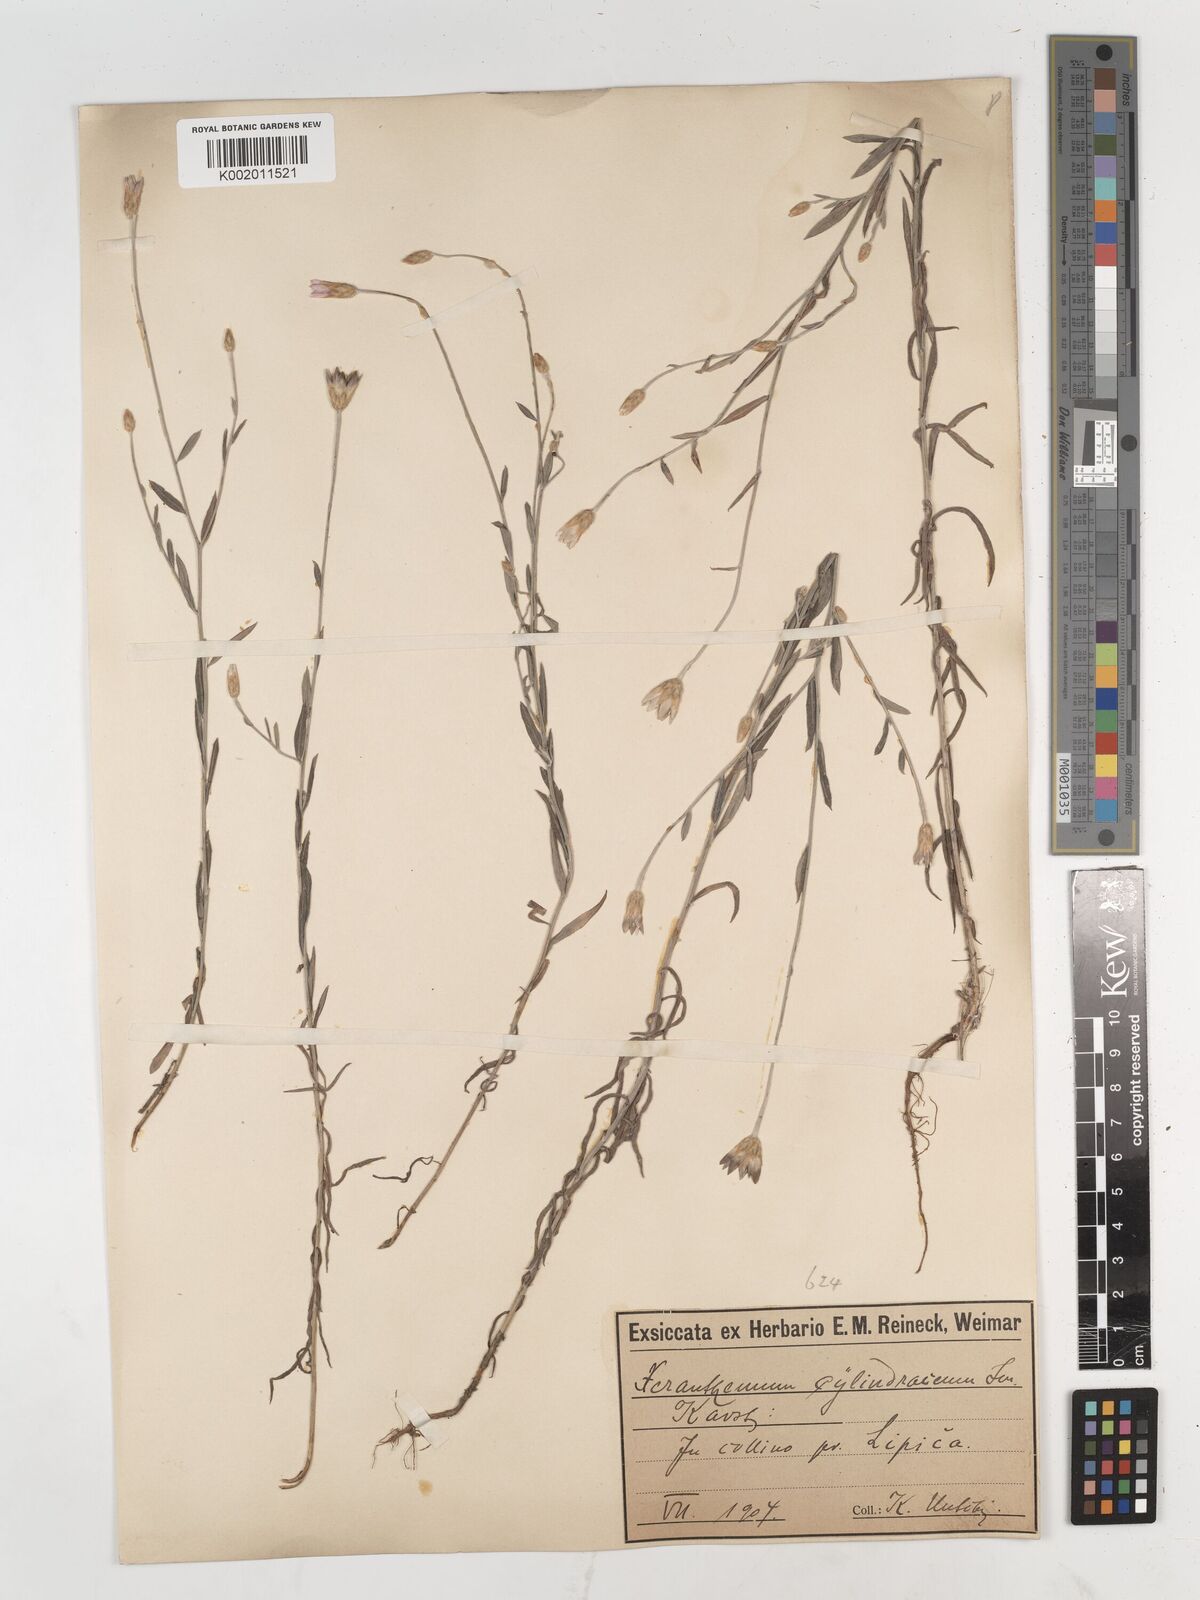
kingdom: Plantae
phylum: Tracheophyta
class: Magnoliopsida
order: Asterales
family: Asteraceae
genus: Xeranthemum
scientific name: Xeranthemum cylindraceum
